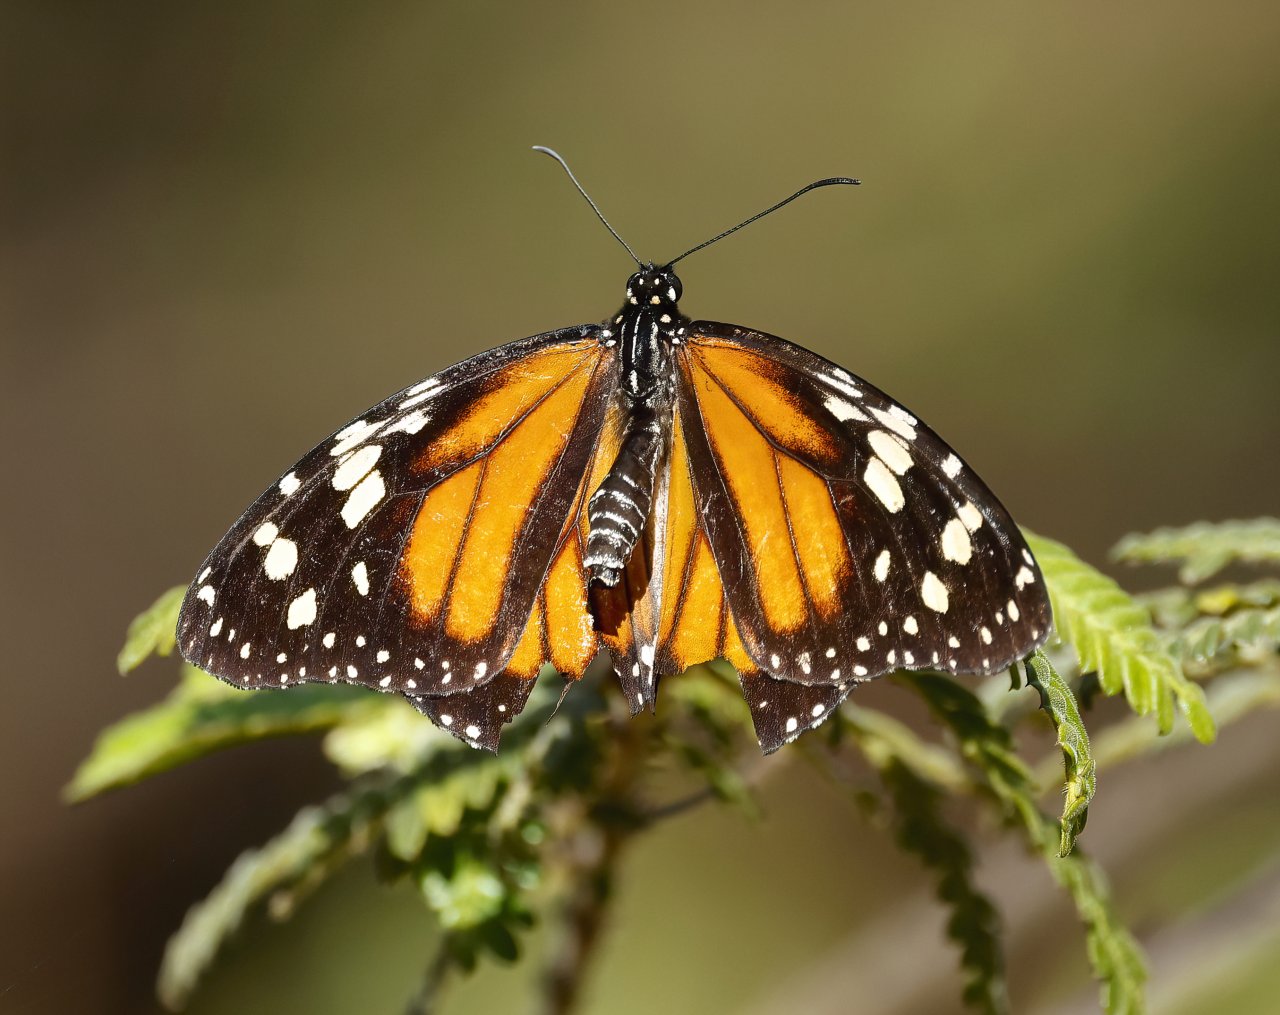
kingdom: Animalia
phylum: Arthropoda
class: Insecta
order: Lepidoptera
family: Nymphalidae
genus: Danaus
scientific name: Danaus plexippus
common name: Monarch
